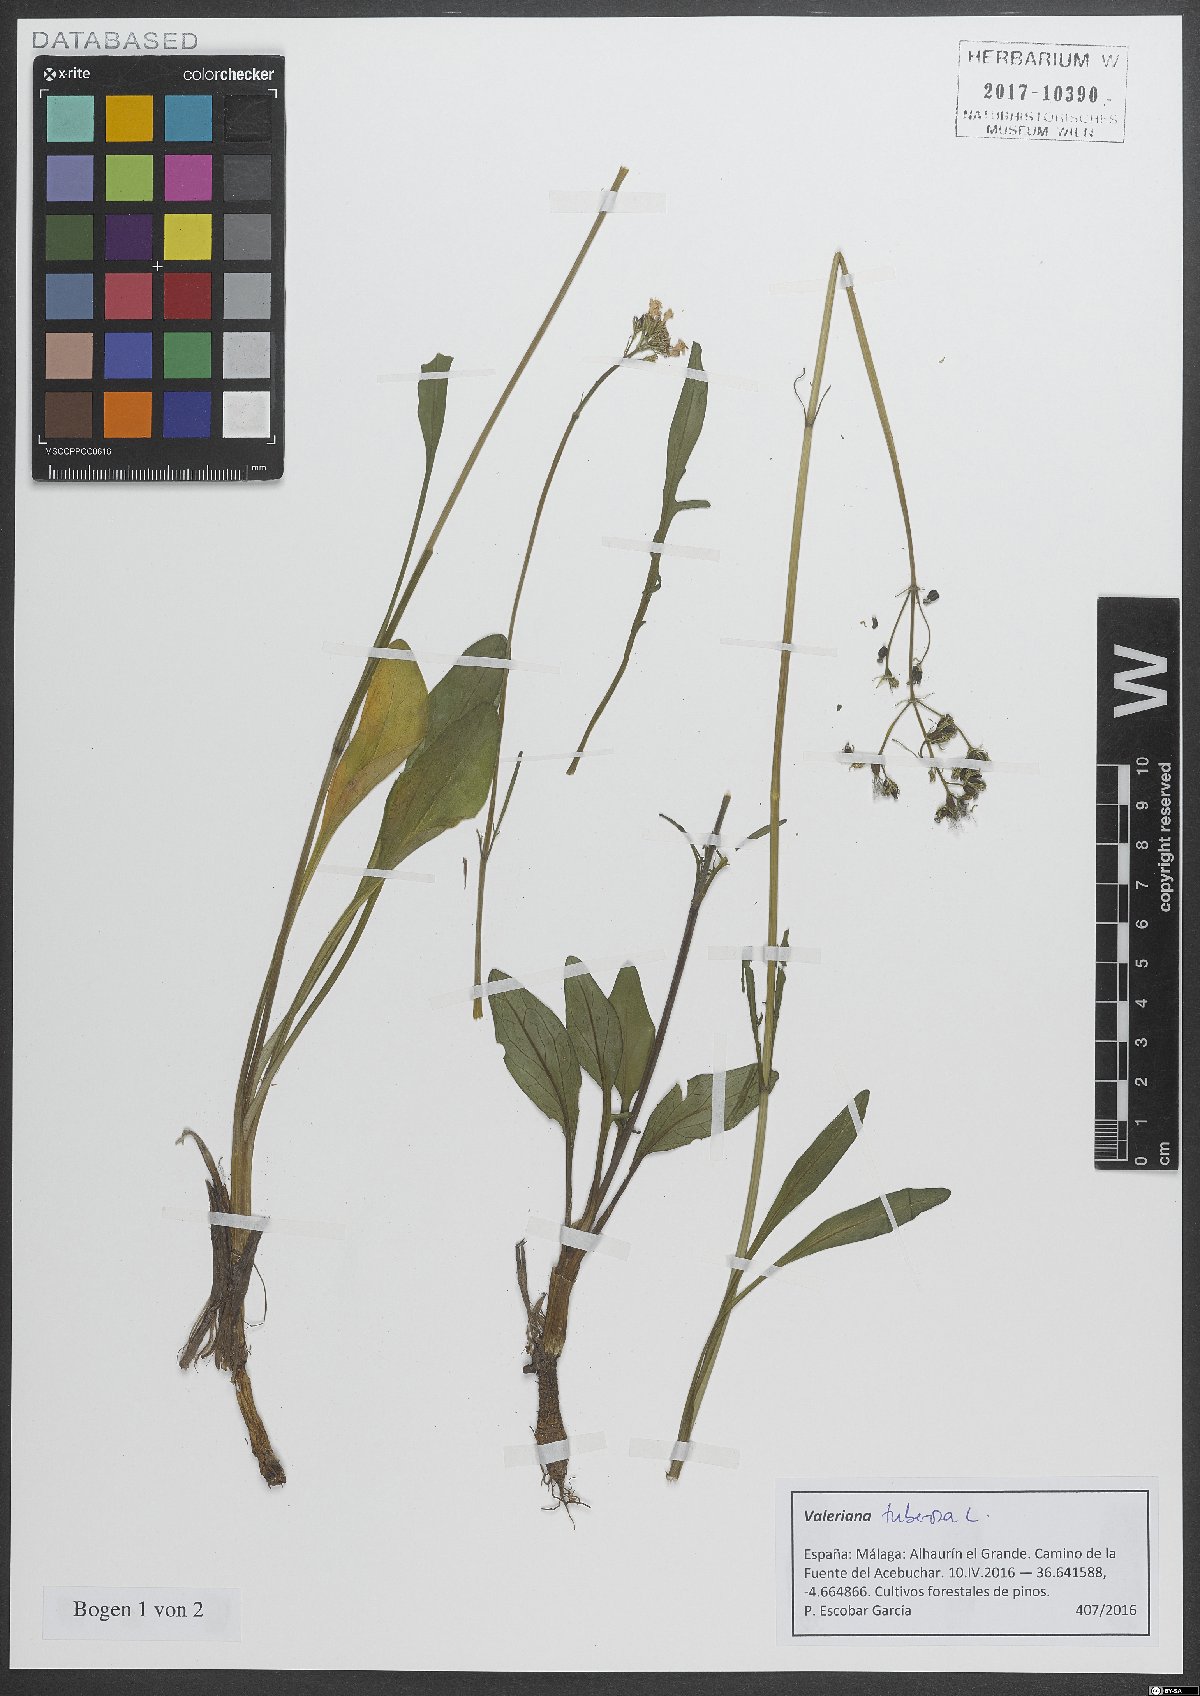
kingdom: Plantae
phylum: Tracheophyta
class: Magnoliopsida
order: Dipsacales
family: Caprifoliaceae
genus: Valeriana
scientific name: Valeriana tuberosa
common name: Tuberous valerian
